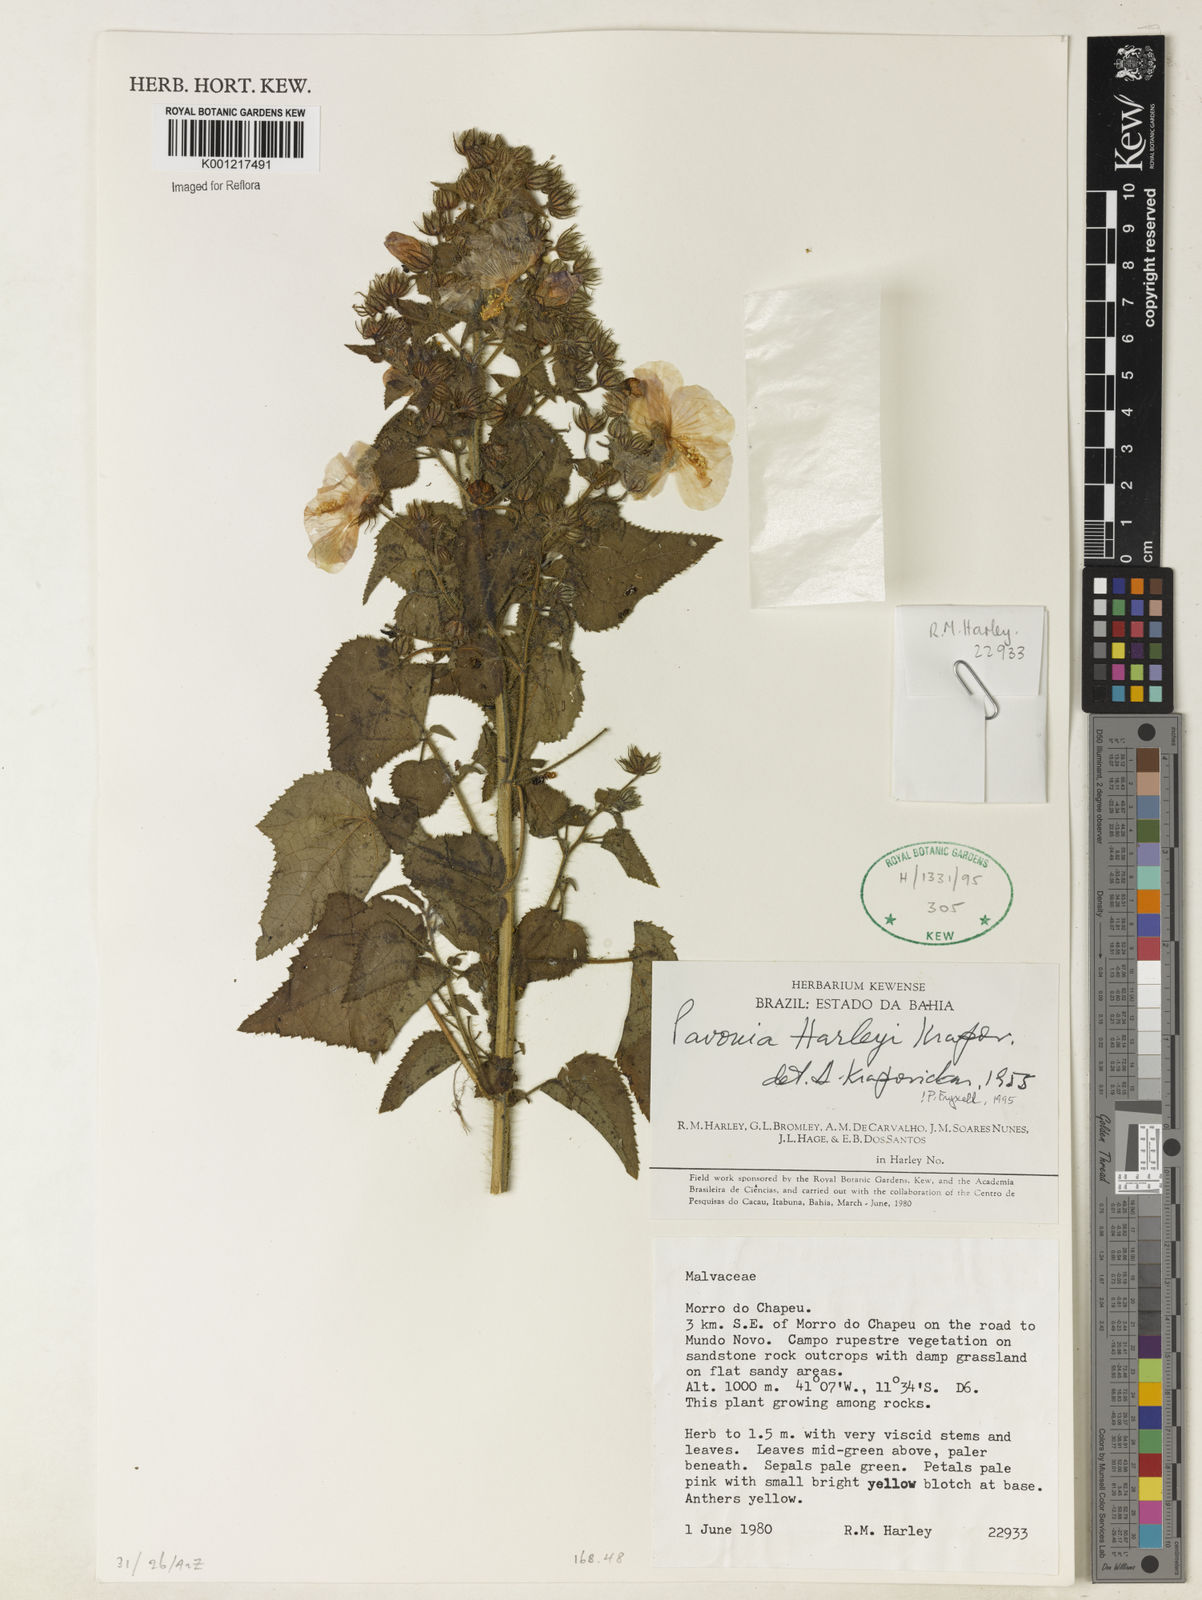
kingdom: Plantae
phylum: Tracheophyta
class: Magnoliopsida
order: Malvales
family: Malvaceae
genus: Pavonia
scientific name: Pavonia harleyi
